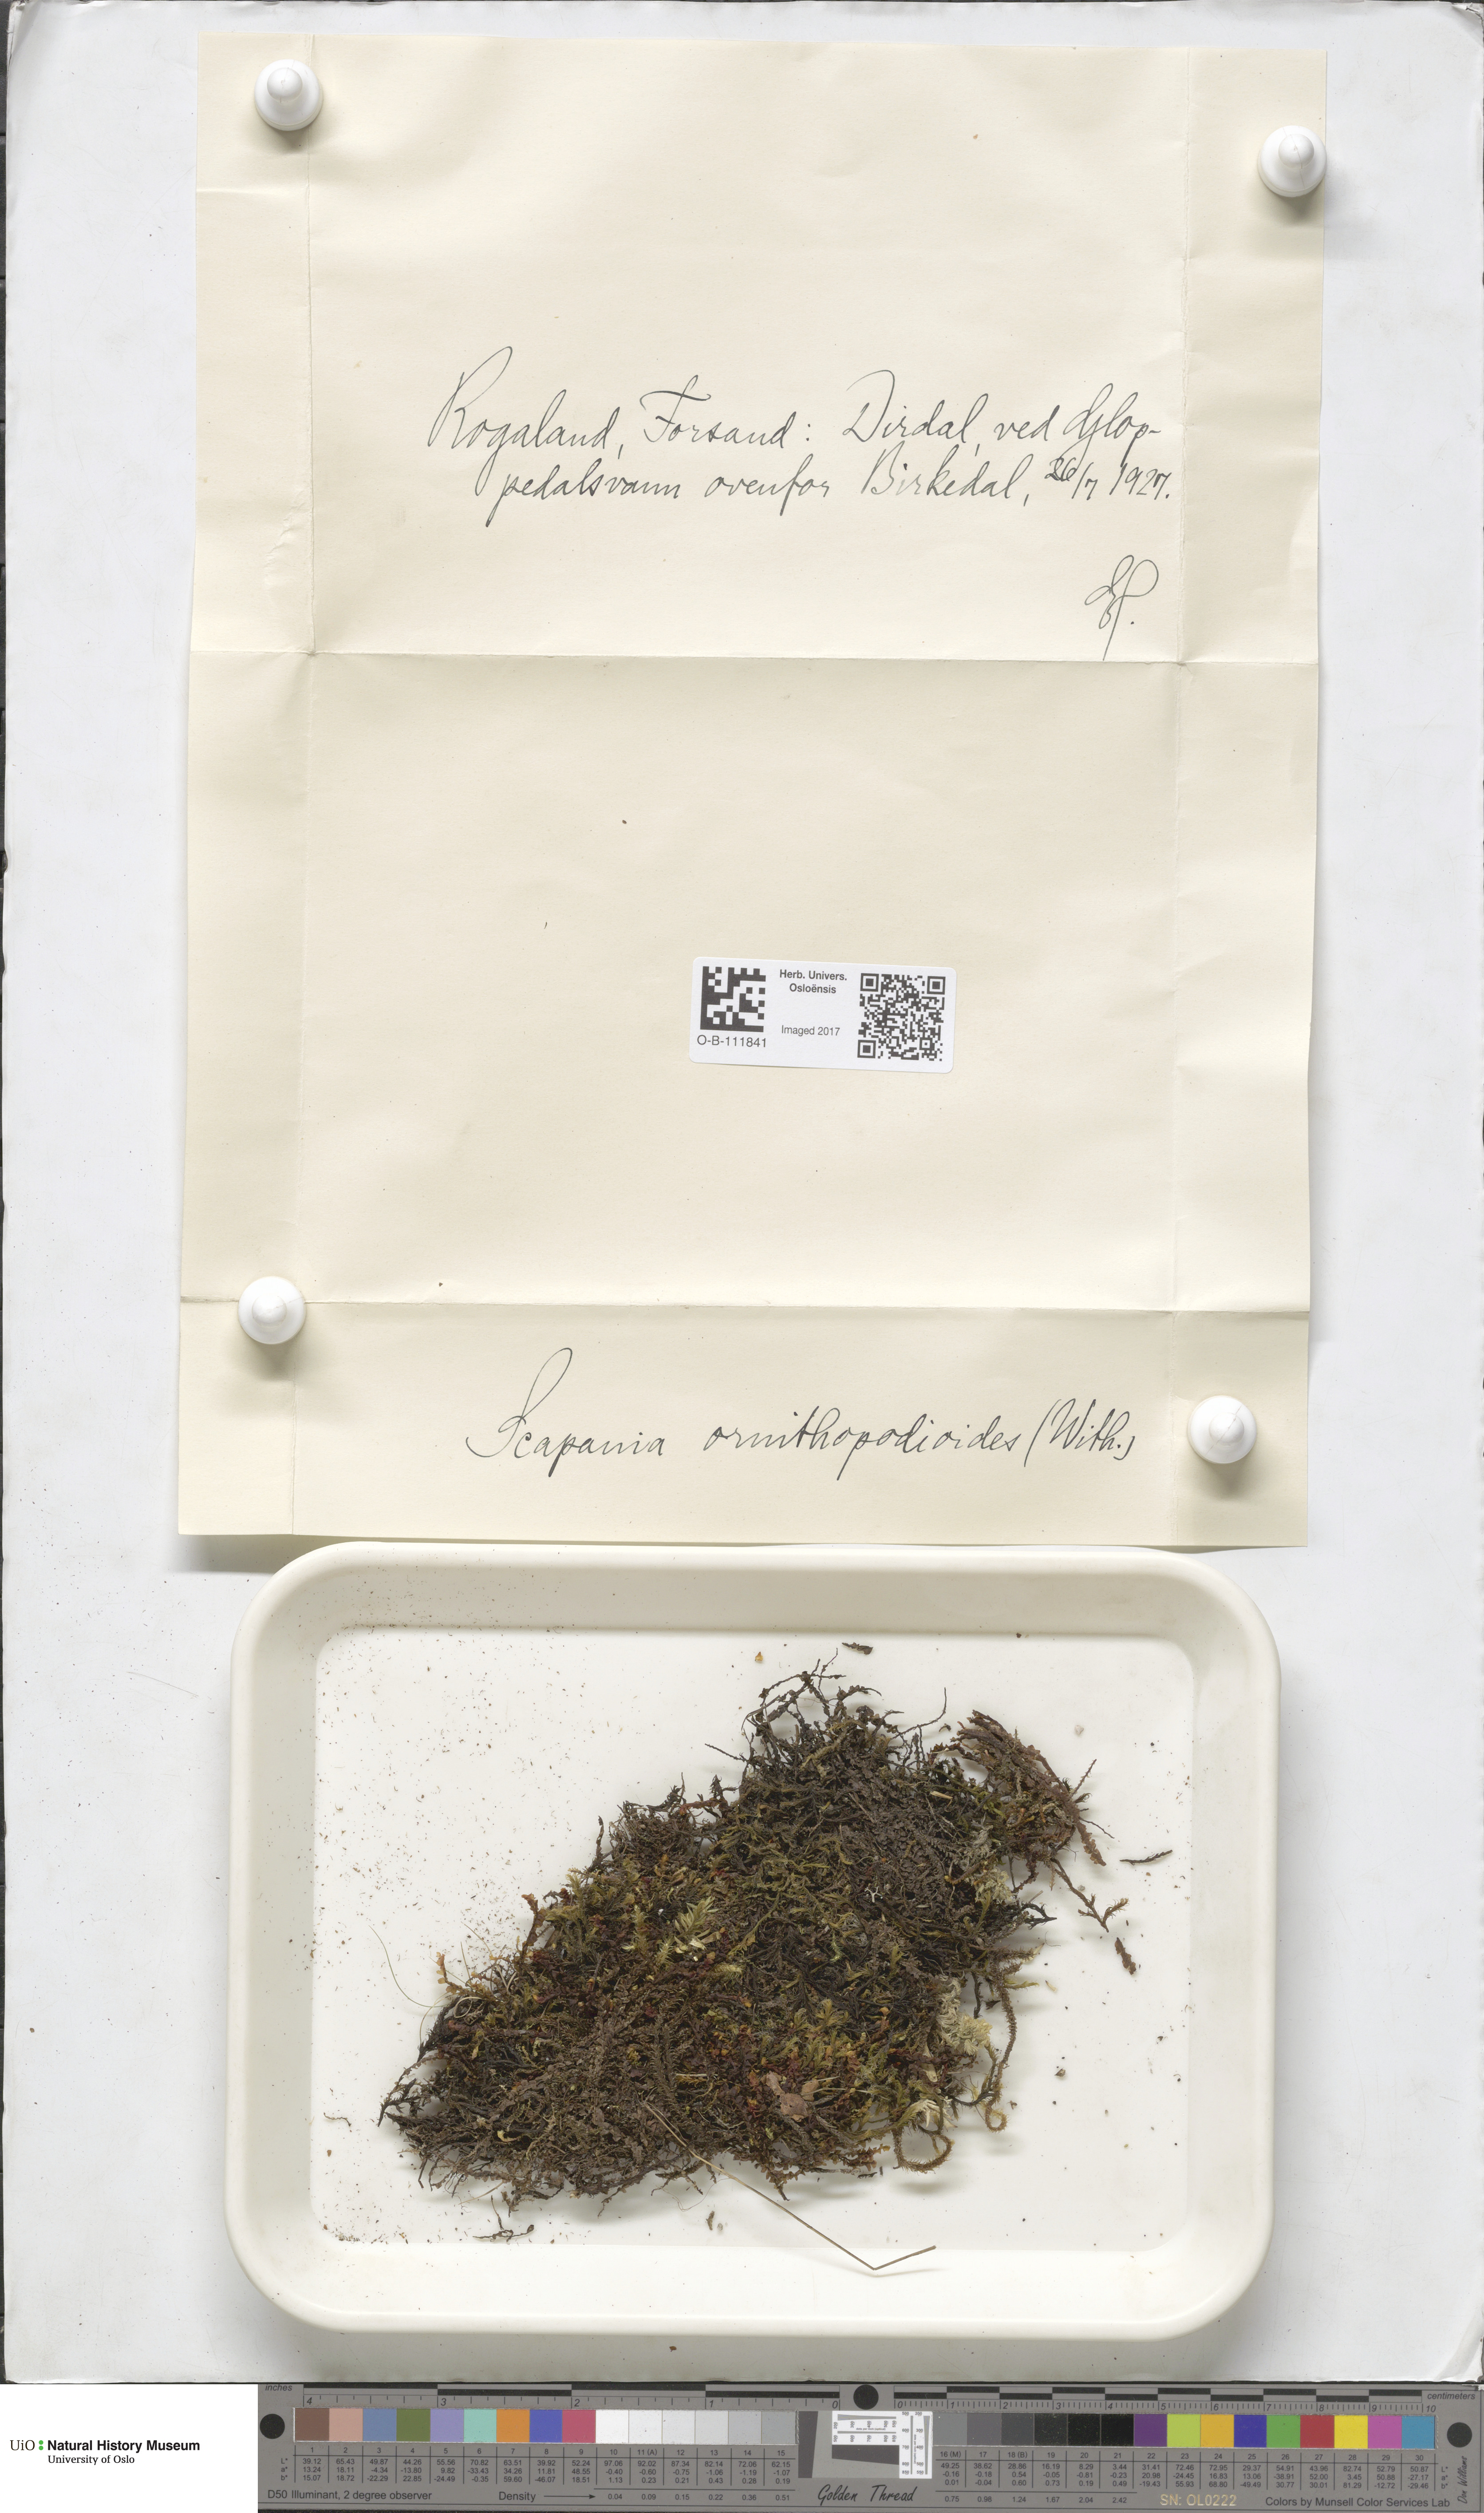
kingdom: Plantae
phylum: Marchantiophyta
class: Jungermanniopsida
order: Jungermanniales
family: Scapaniaceae
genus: Scapania
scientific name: Scapania ornithopodioides
